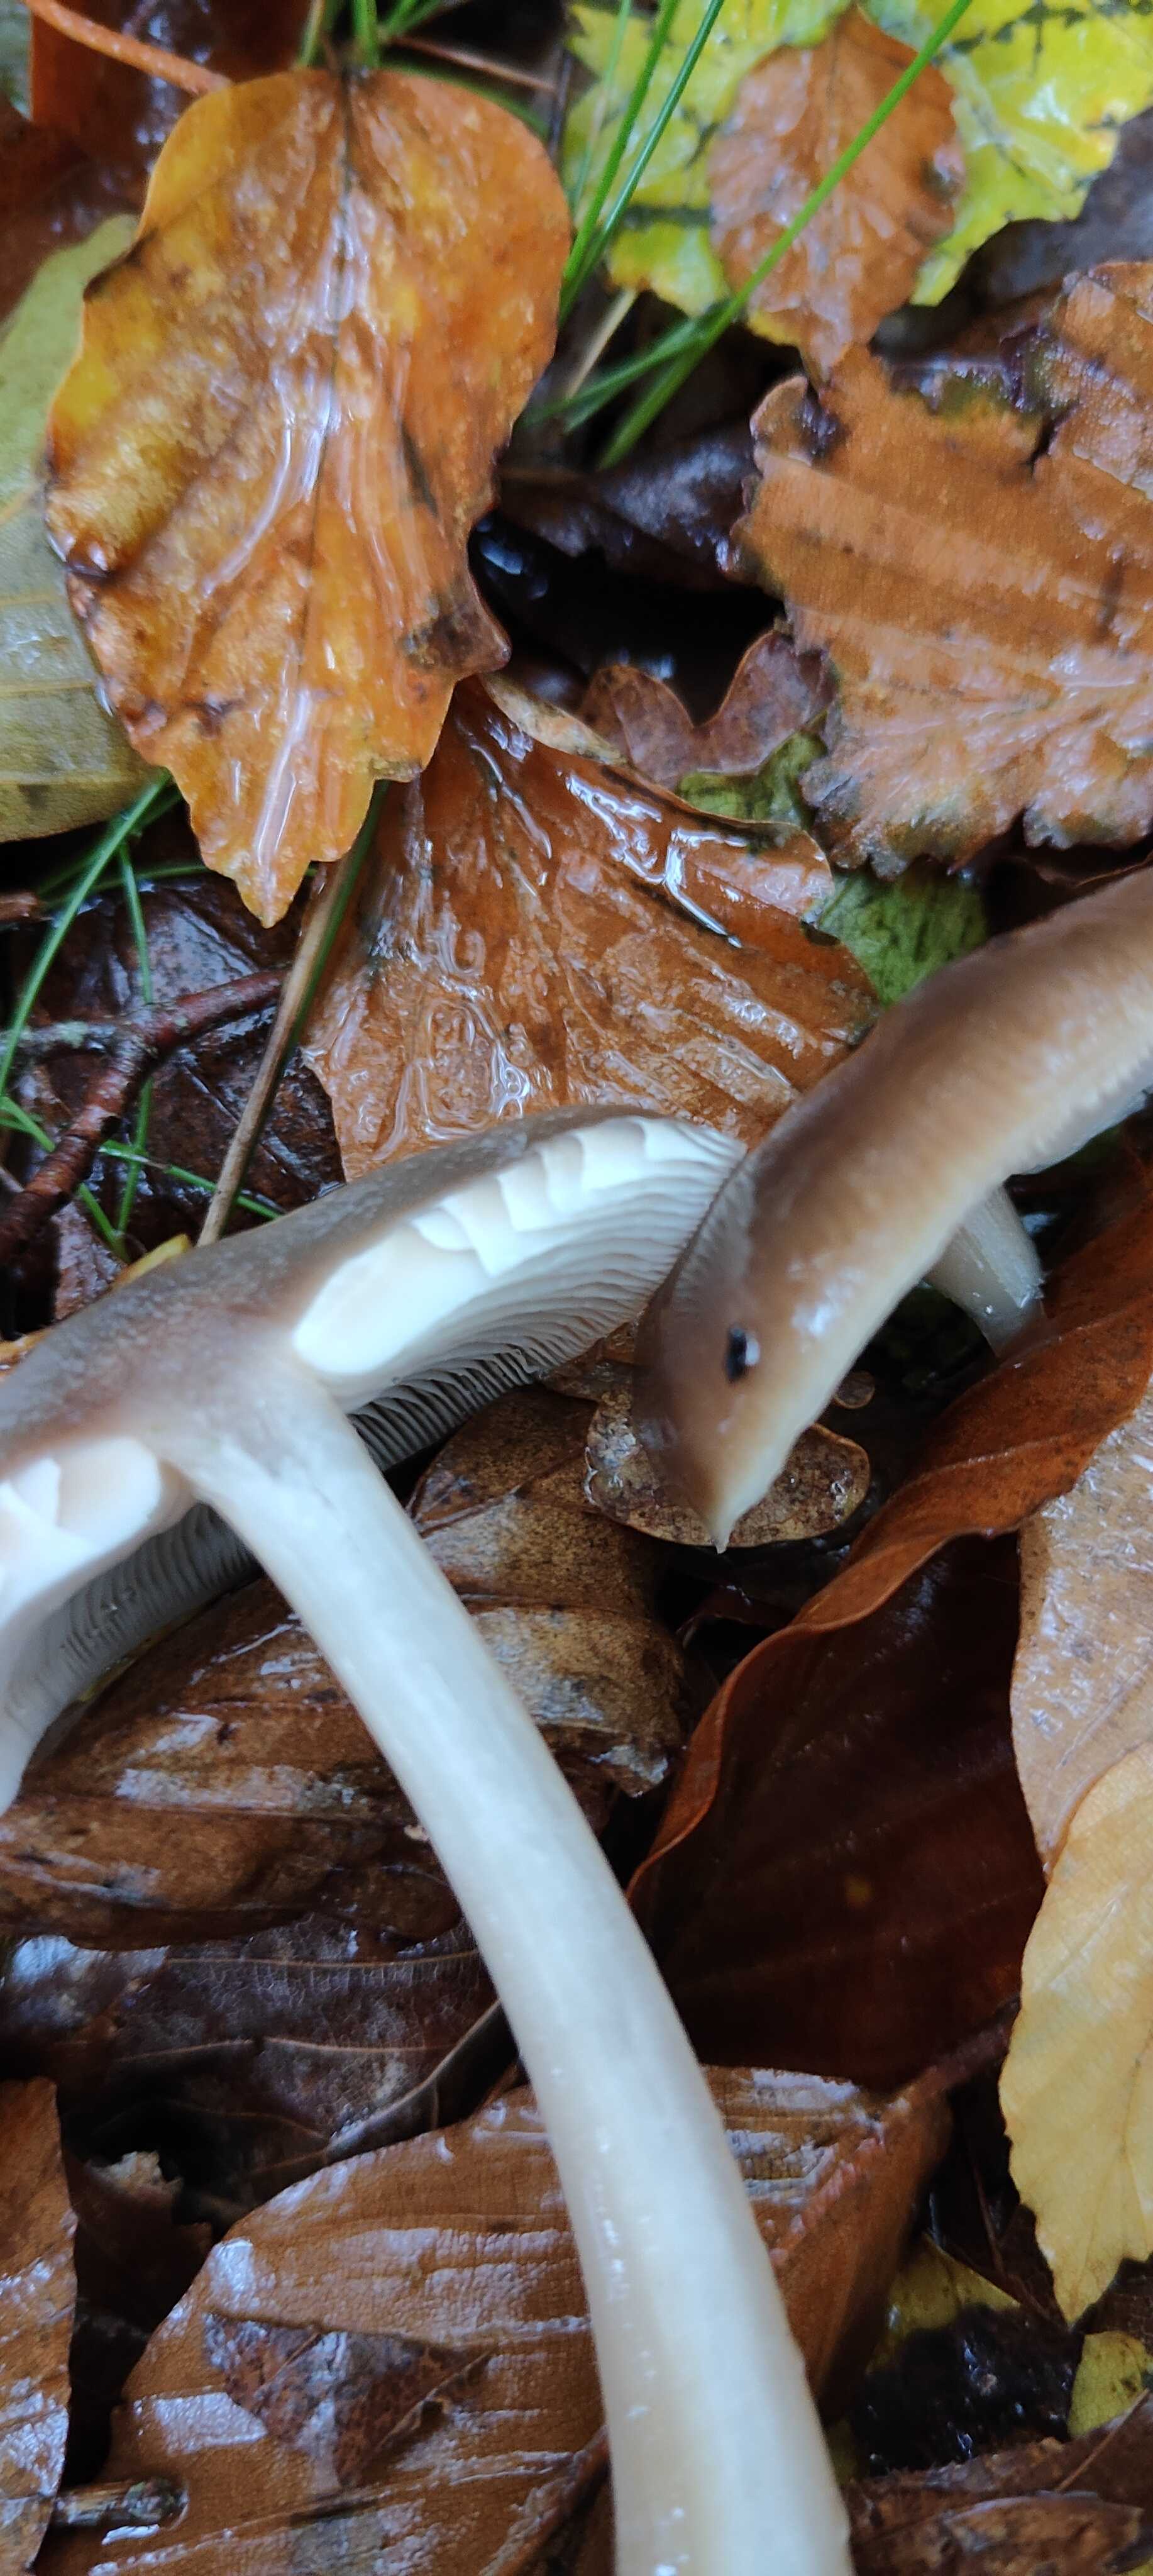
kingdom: Fungi
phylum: Basidiomycota
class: Agaricomycetes
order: Agaricales
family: Omphalotaceae
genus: Rhodocollybia
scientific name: Rhodocollybia asema
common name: horngrå fladhat
